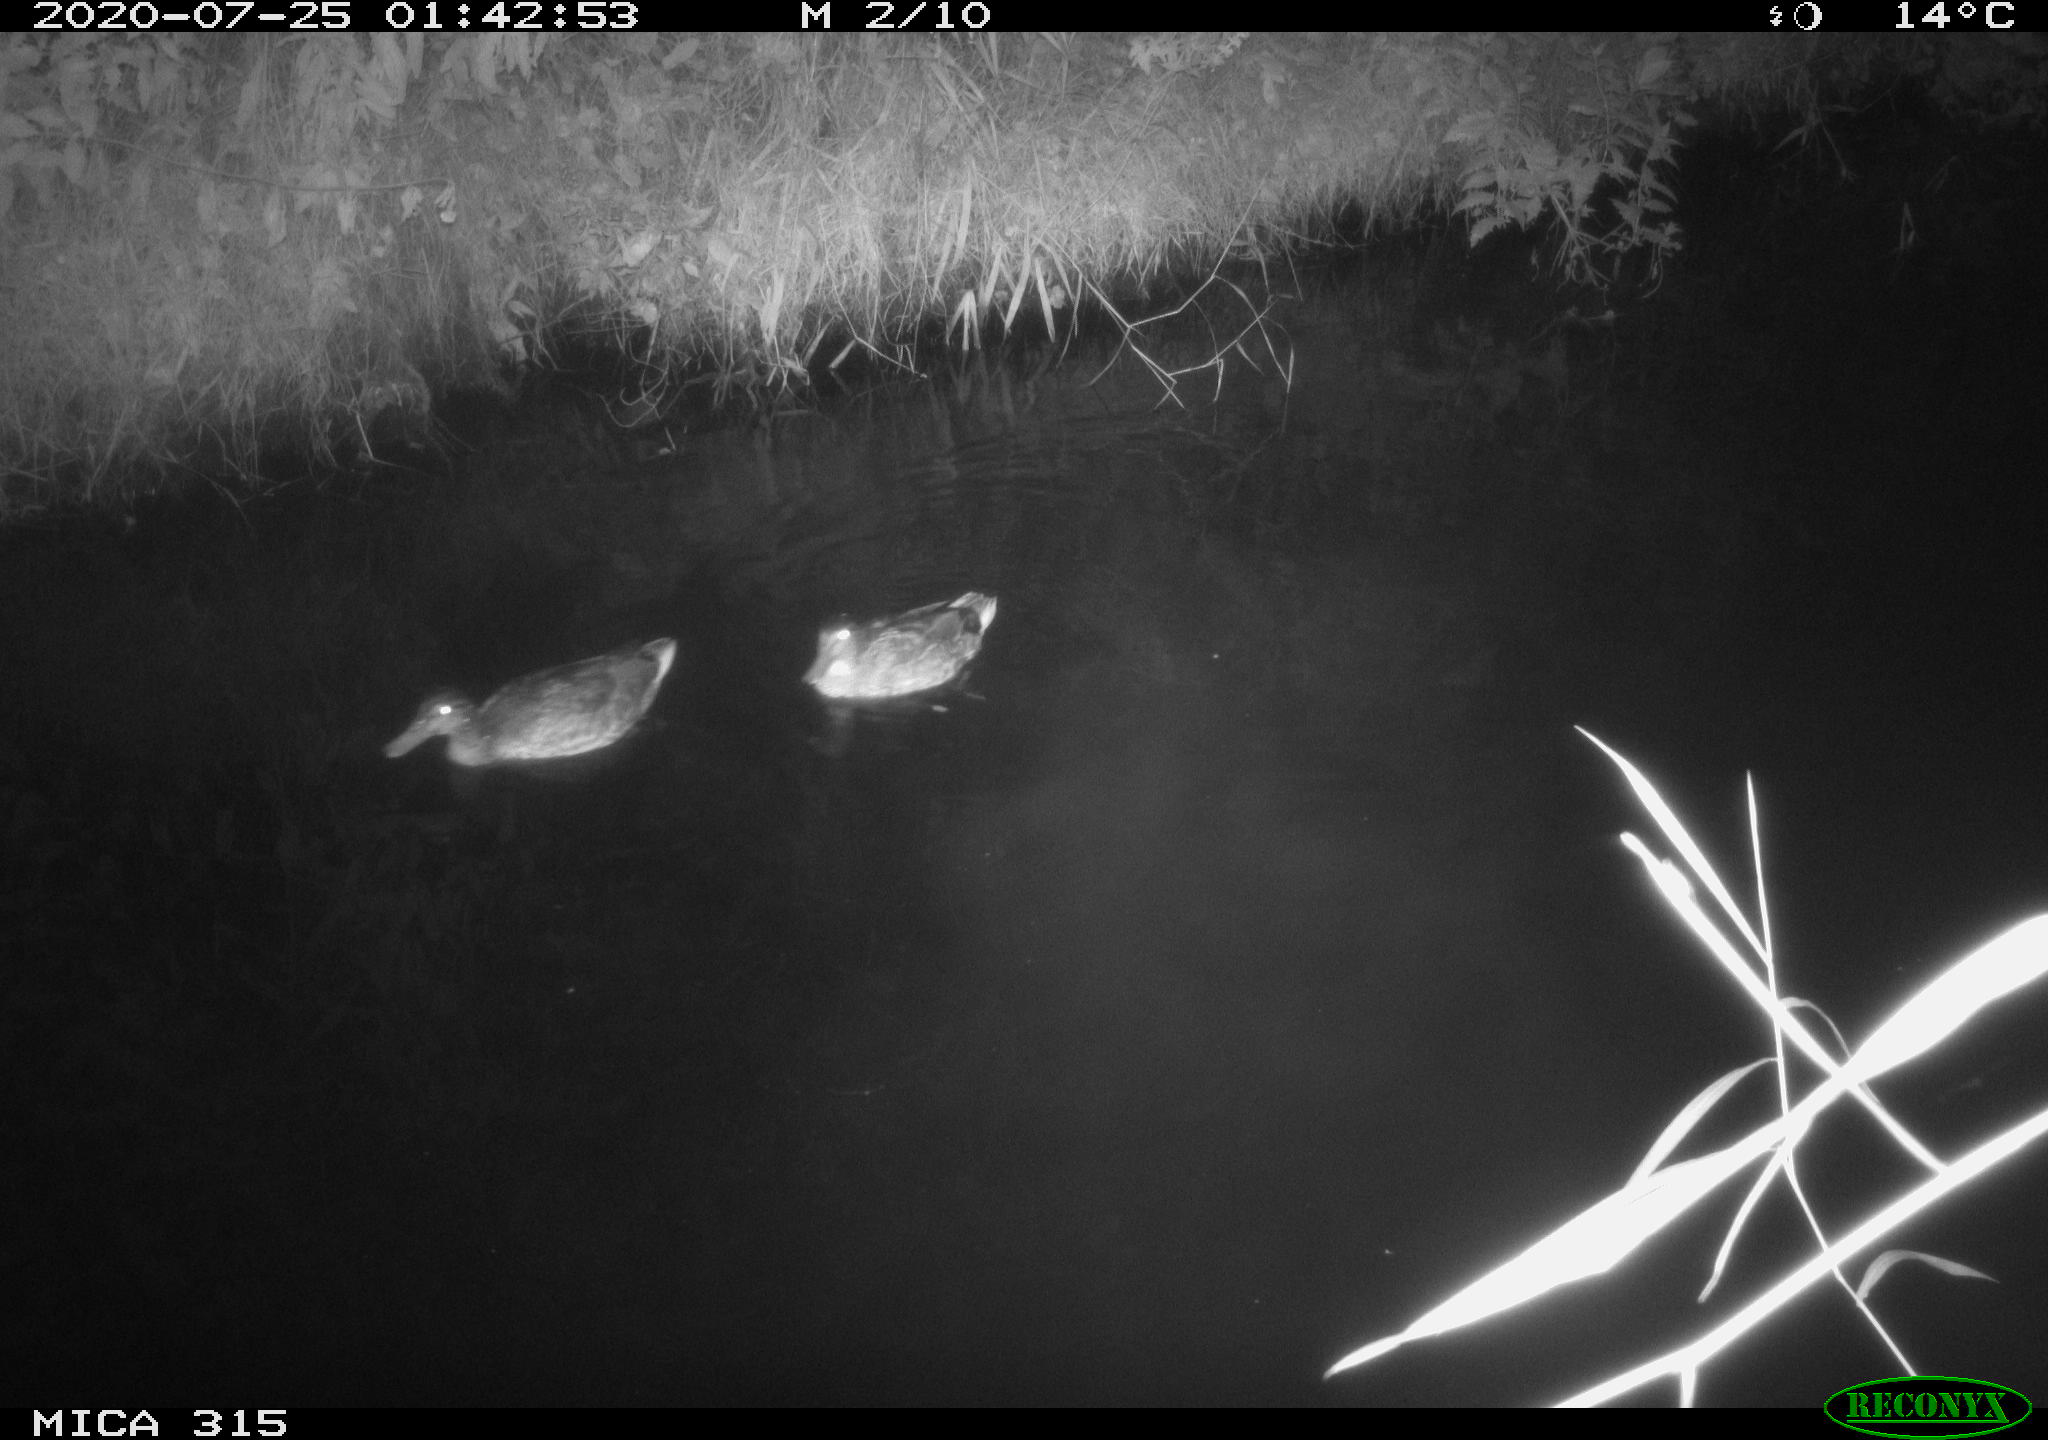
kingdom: Animalia
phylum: Chordata
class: Aves
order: Anseriformes
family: Anatidae
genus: Anas
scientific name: Anas platyrhynchos
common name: Mallard
